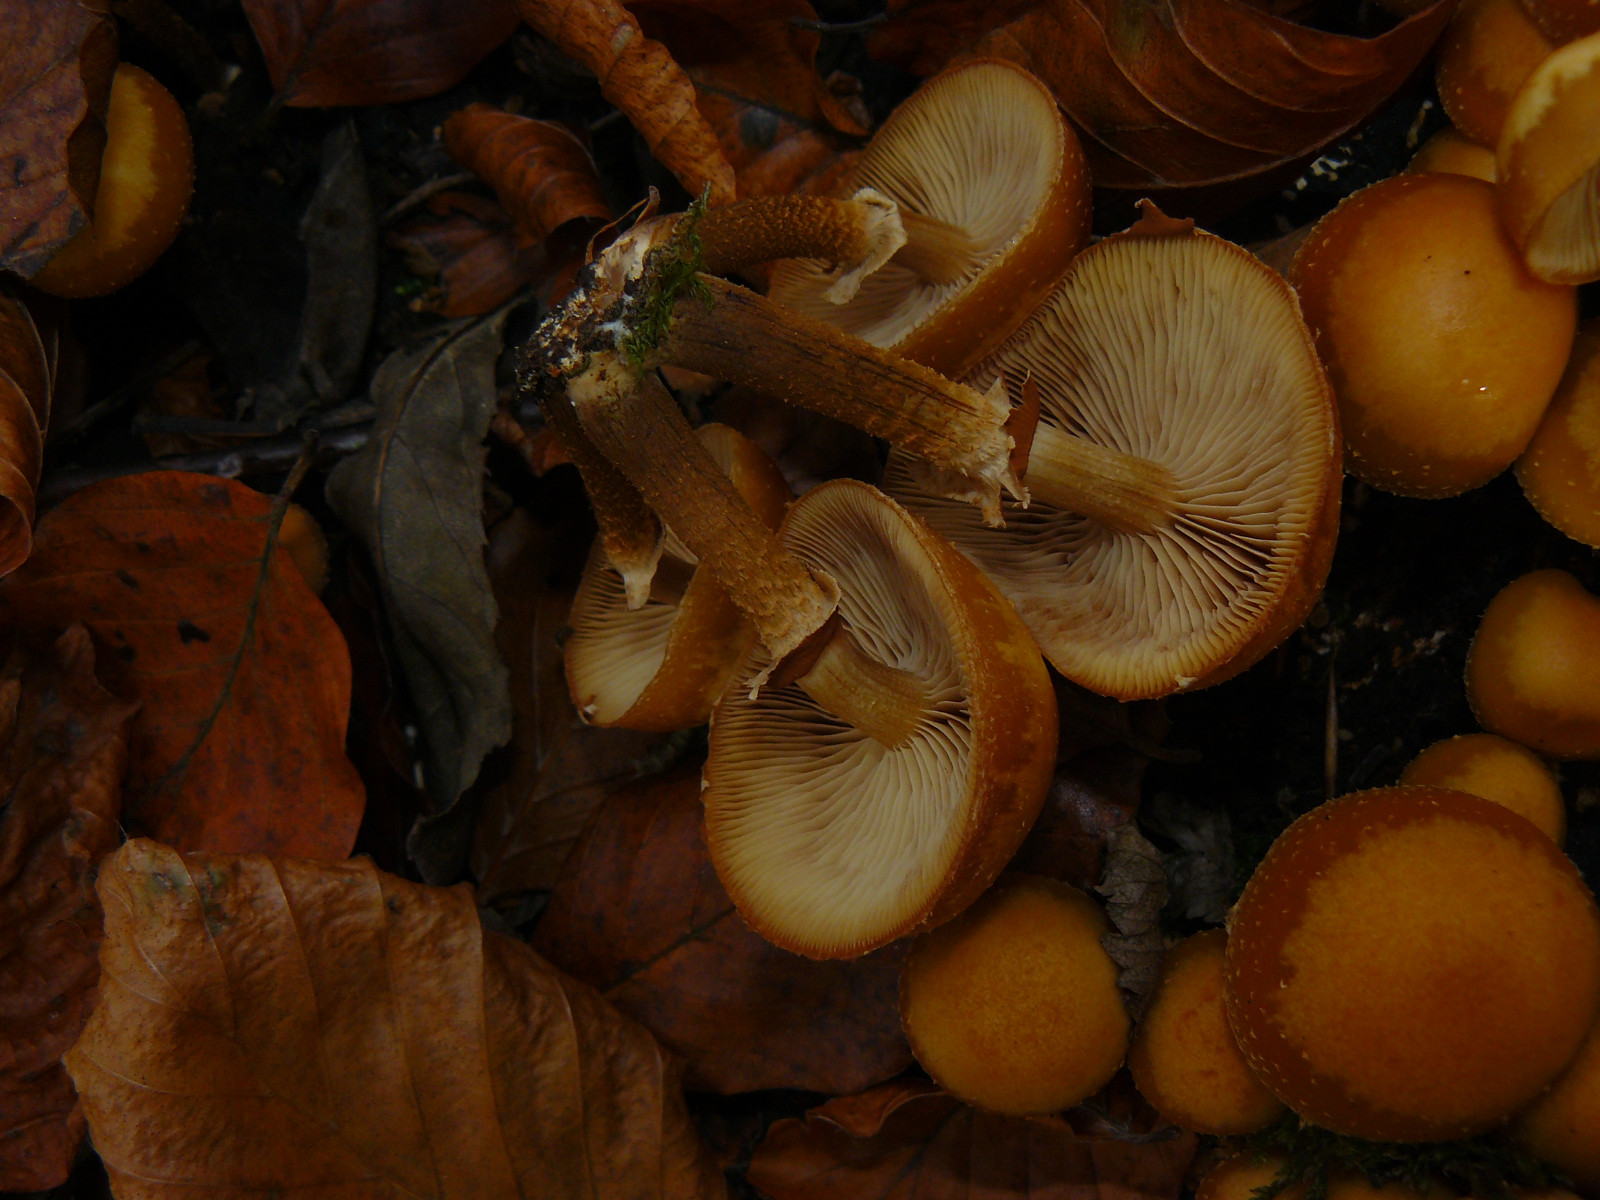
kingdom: Fungi
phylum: Basidiomycota
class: Agaricomycetes
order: Agaricales
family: Strophariaceae
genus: Kuehneromyces
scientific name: Kuehneromyces mutabilis
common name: foranderlig skælhat
